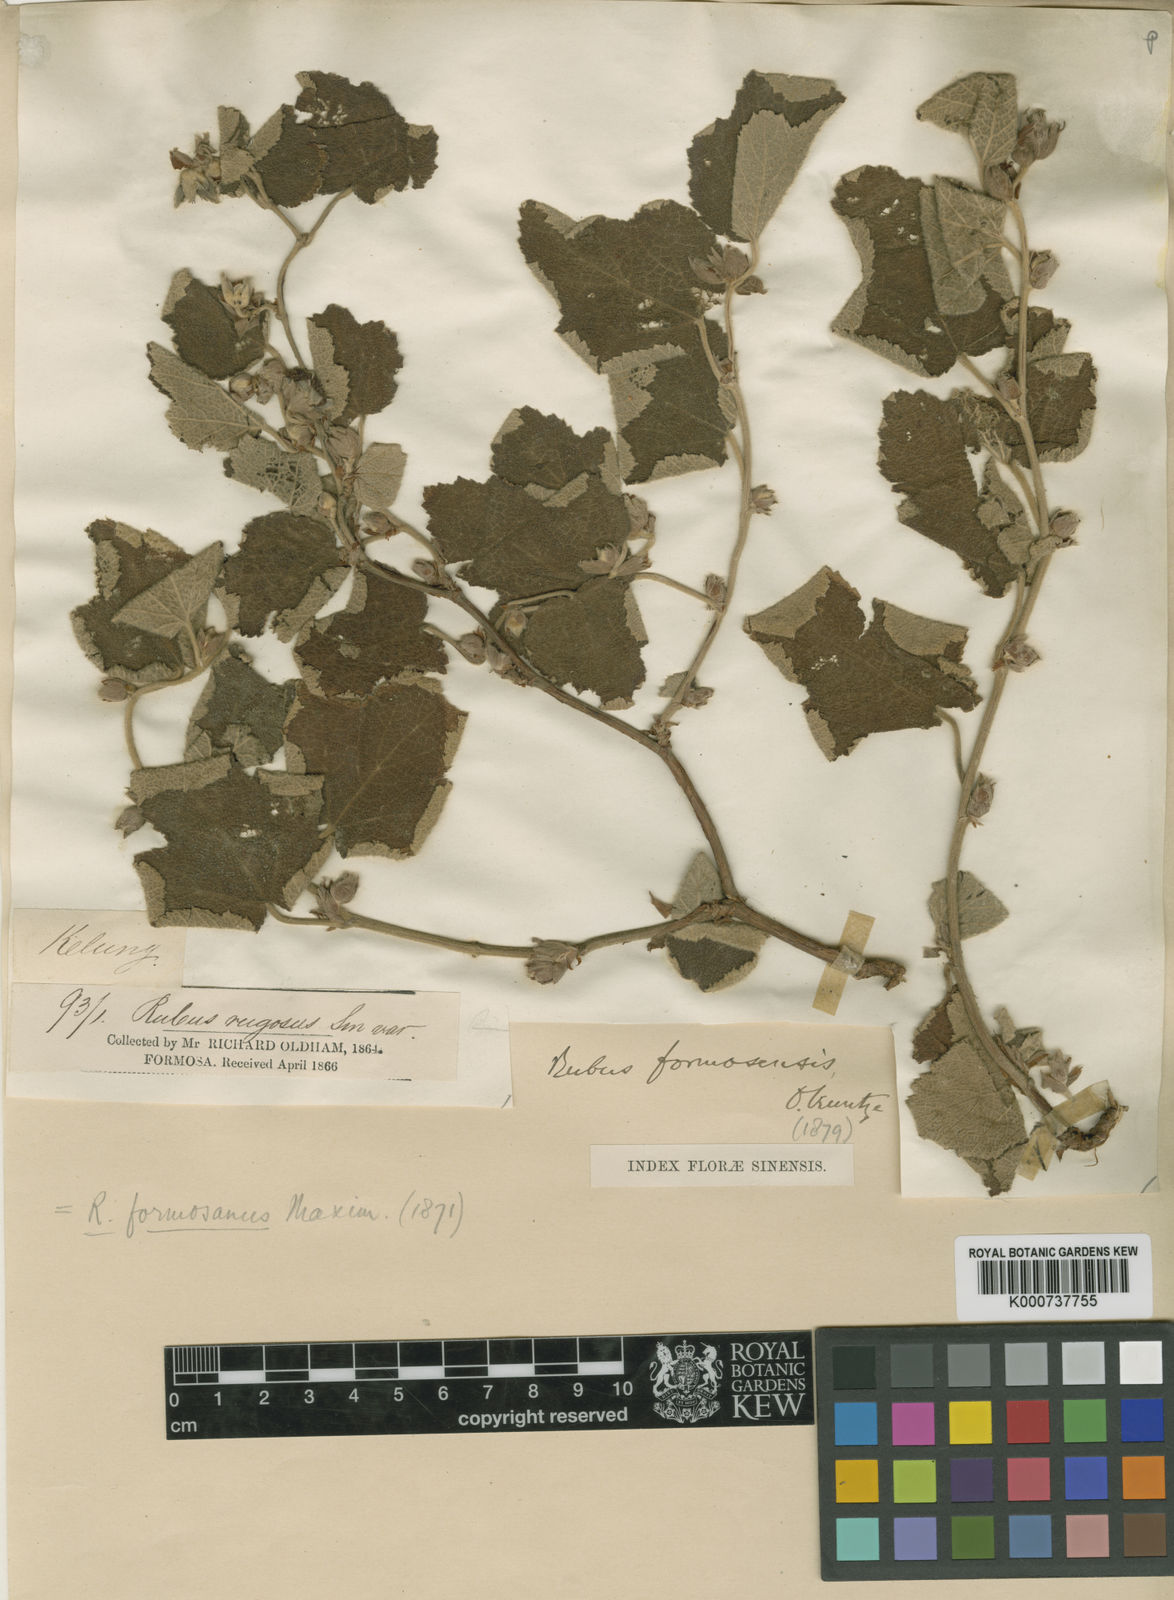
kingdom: Plantae
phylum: Tracheophyta
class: Magnoliopsida
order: Rosales
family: Rosaceae
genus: Rubus
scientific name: Rubus formosensis
